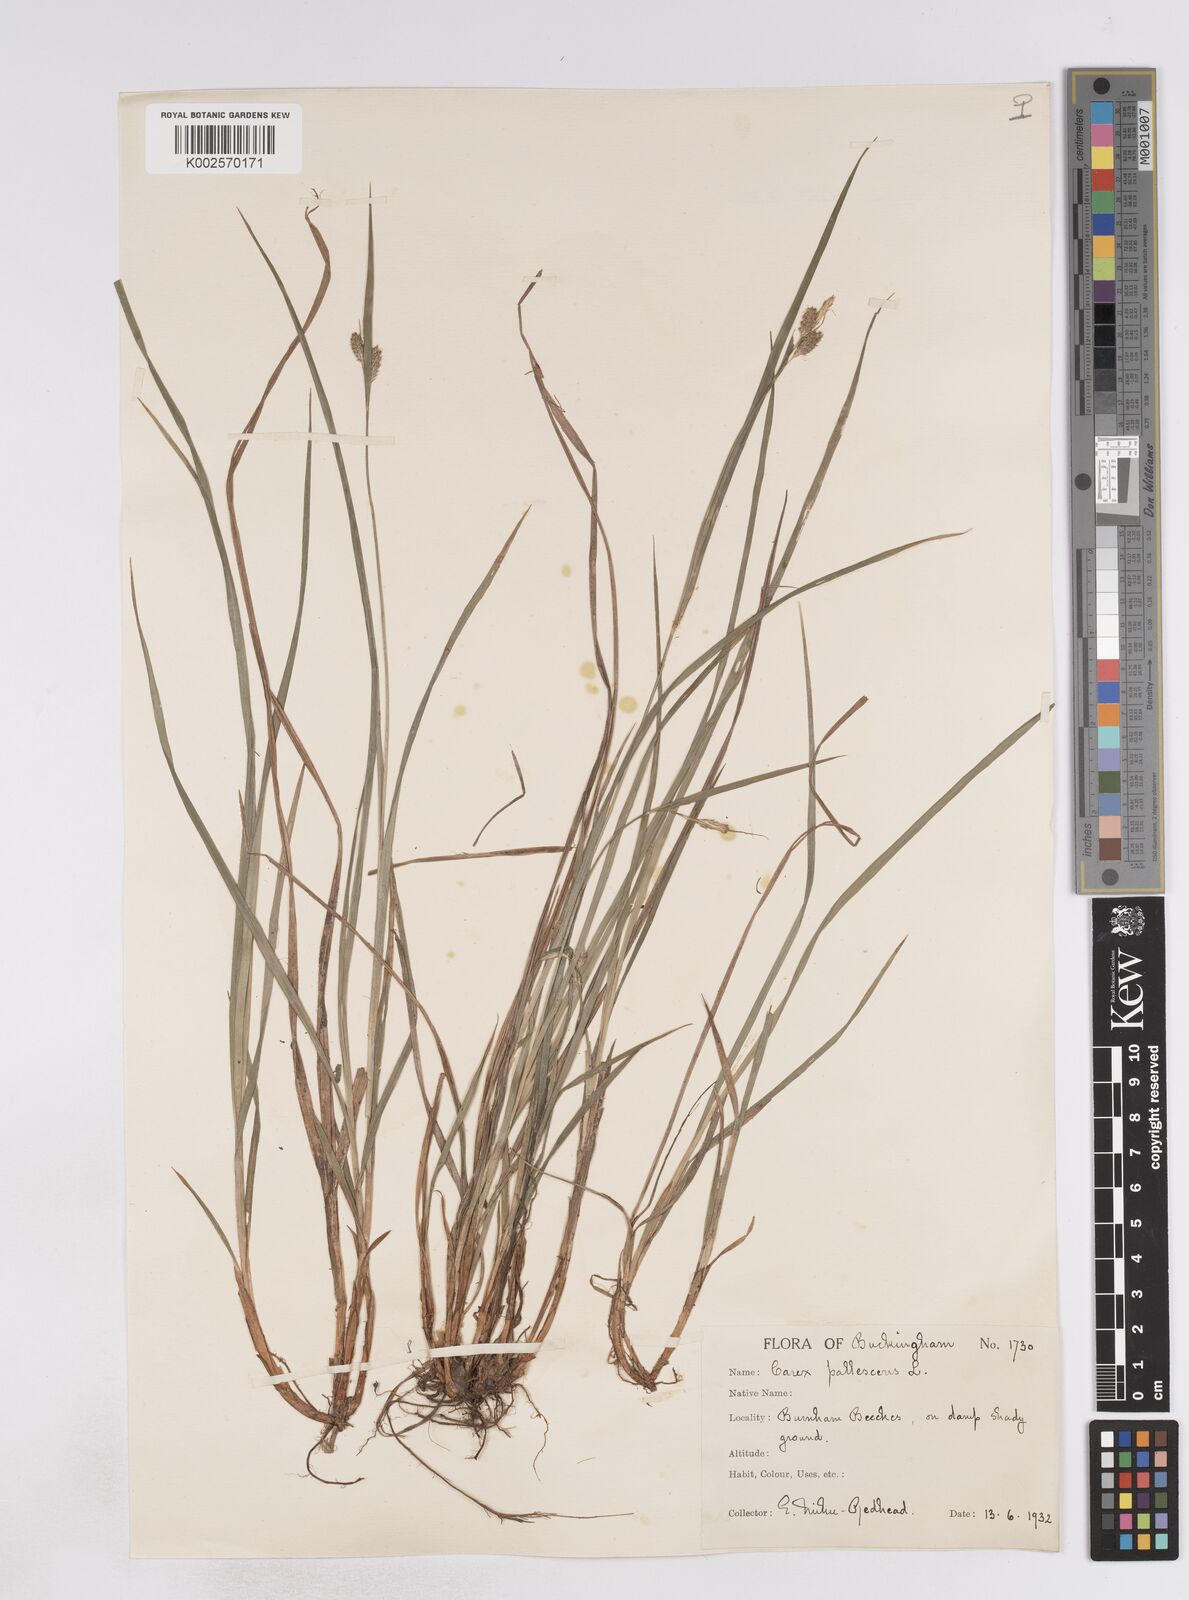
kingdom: Plantae
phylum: Tracheophyta
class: Liliopsida
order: Poales
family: Cyperaceae
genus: Carex
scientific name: Carex pallescens
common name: Pale sedge
